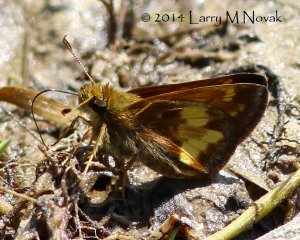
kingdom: Animalia
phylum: Arthropoda
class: Insecta
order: Lepidoptera
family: Hesperiidae
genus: Lon
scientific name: Lon hobomok
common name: Hobomok Skipper
